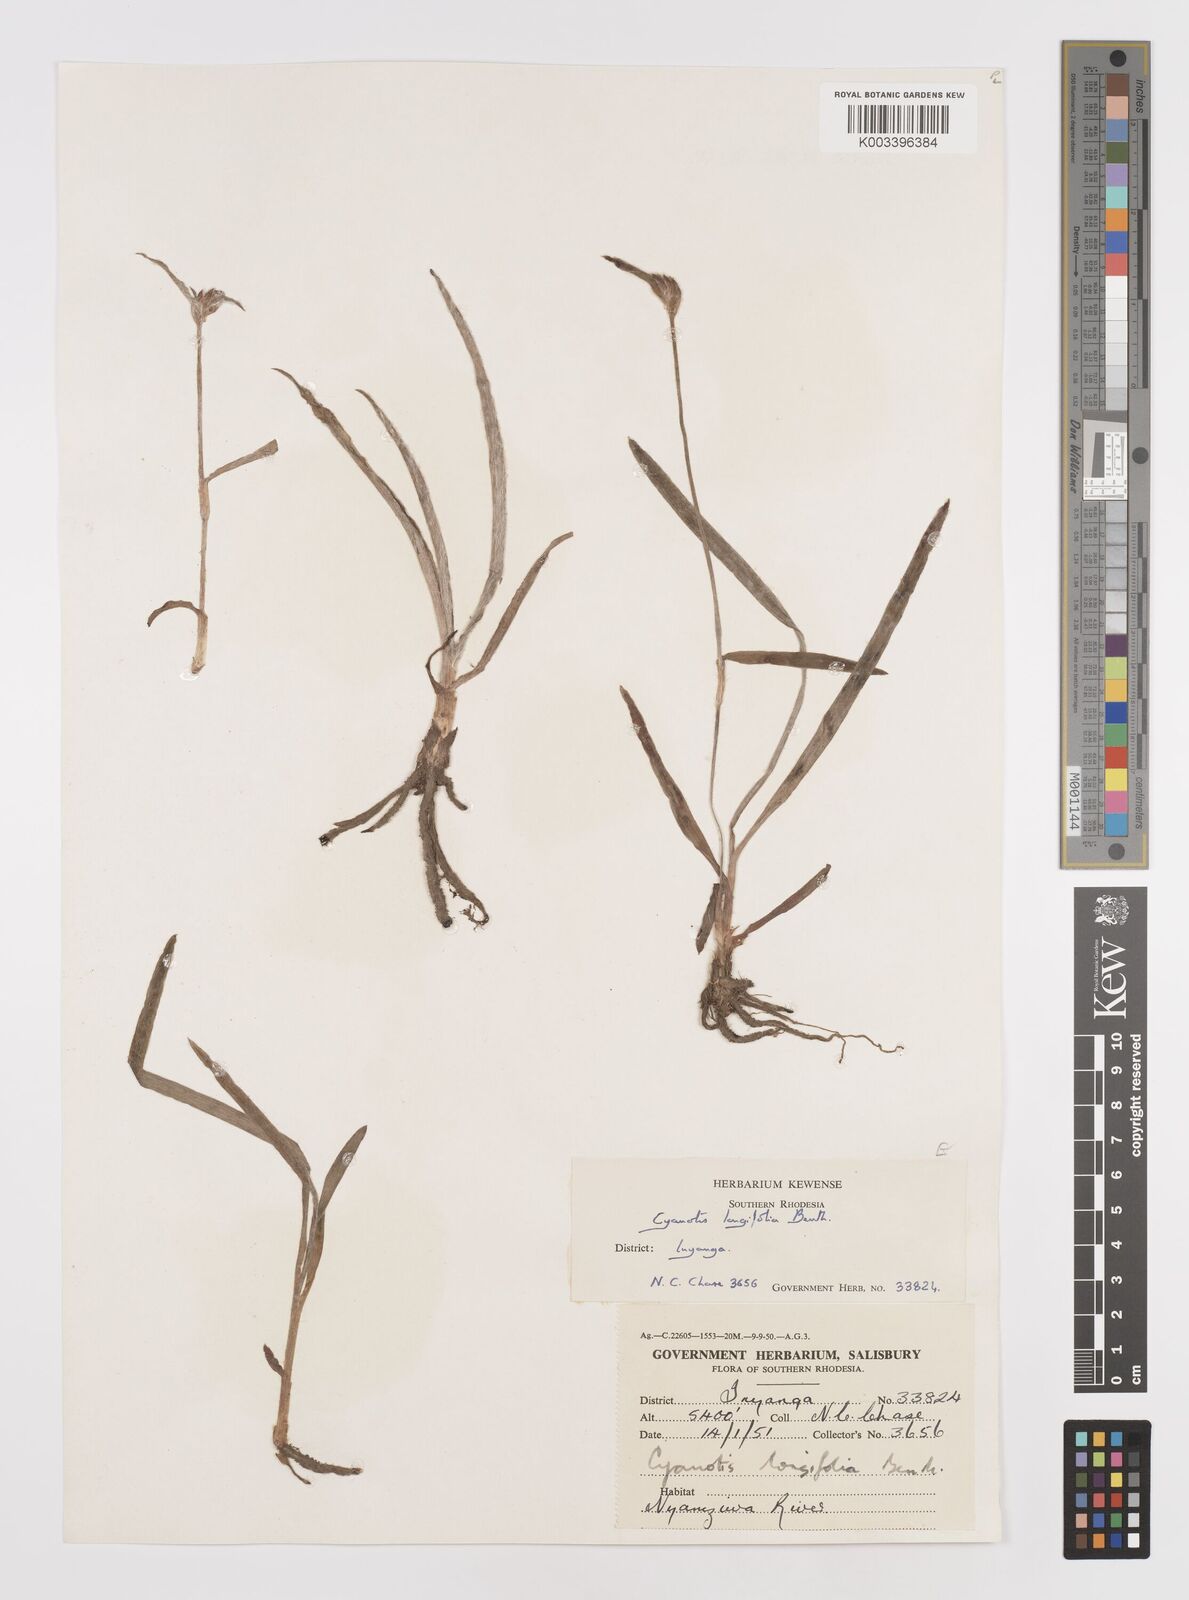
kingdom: Plantae
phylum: Tracheophyta
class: Liliopsida
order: Commelinales
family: Commelinaceae
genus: Cyanotis
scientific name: Cyanotis longifolia
